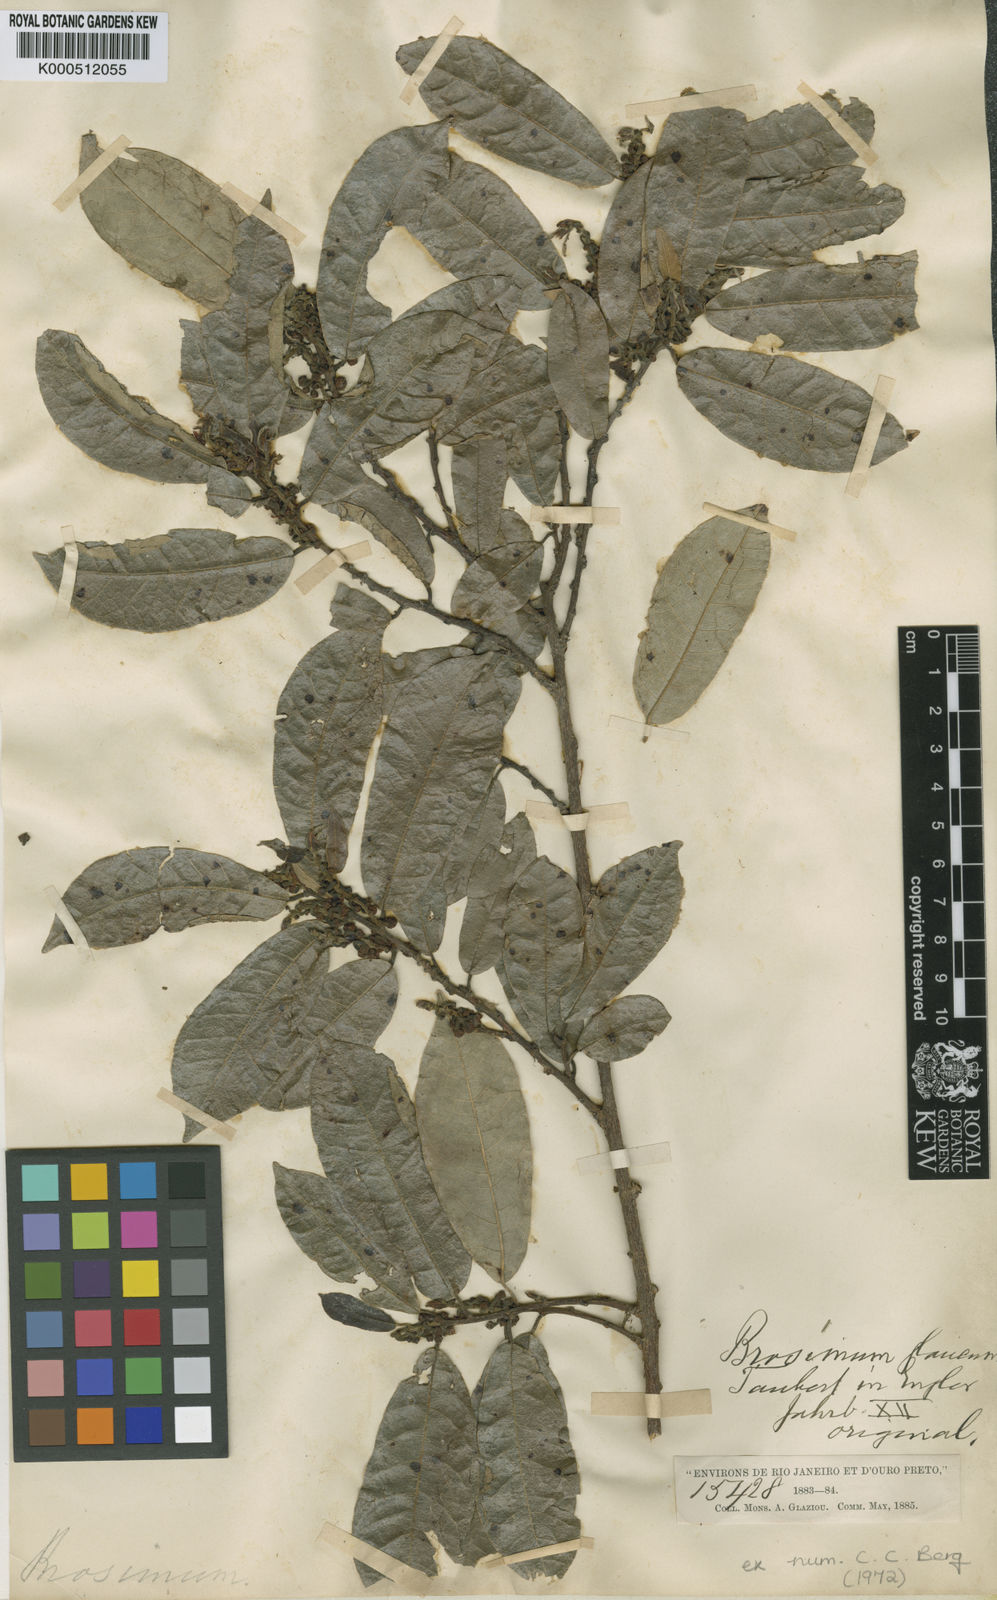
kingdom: Plantae
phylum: Tracheophyta
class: Magnoliopsida
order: Rosales
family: Moraceae
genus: Brosimum
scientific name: Brosimum glaucum
